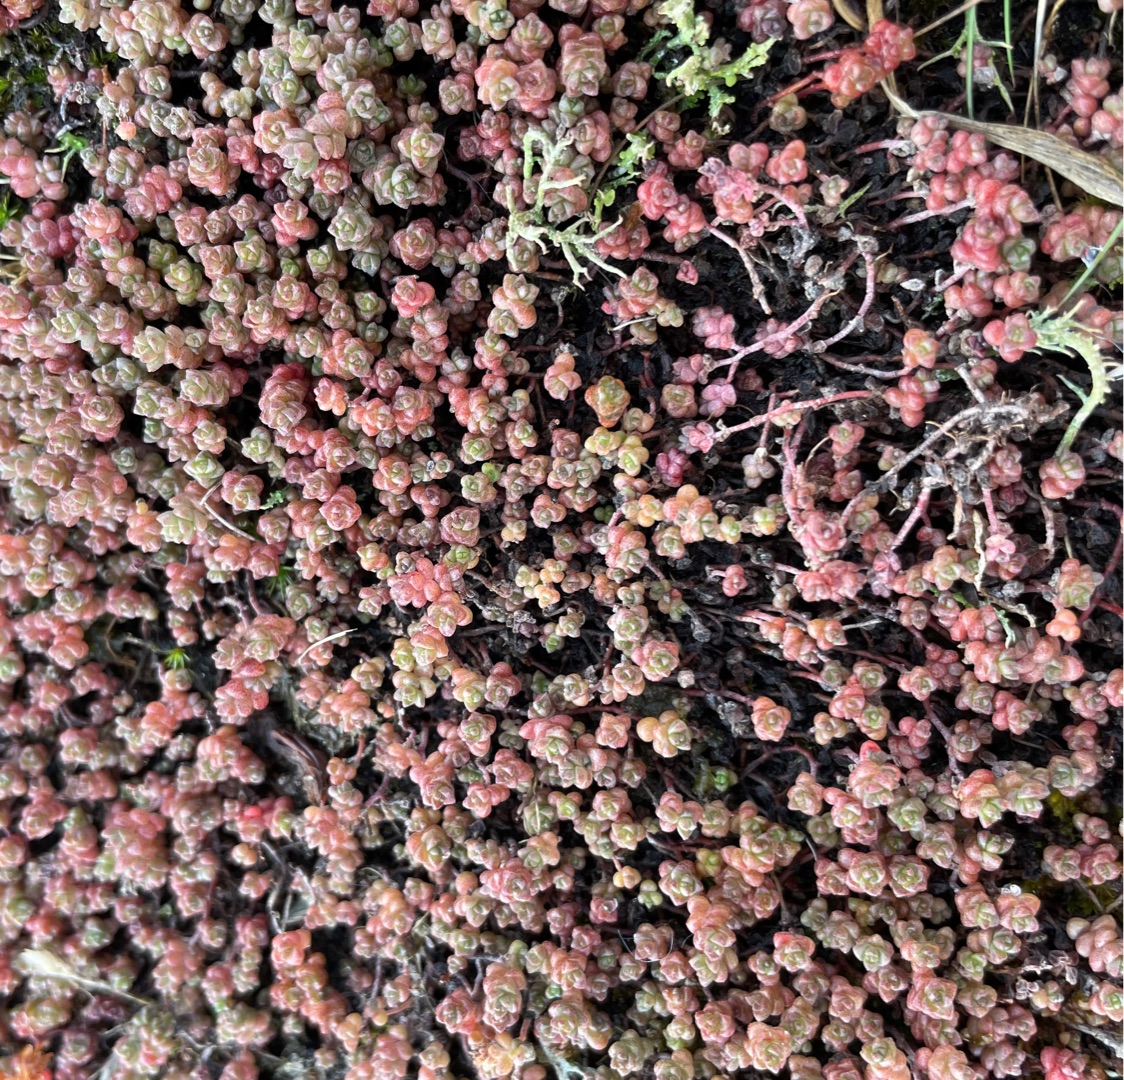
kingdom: Plantae
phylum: Tracheophyta
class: Magnoliopsida
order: Saxifragales
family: Crassulaceae
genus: Sedum
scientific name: Sedum anglicum
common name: Engelsk stenurt
